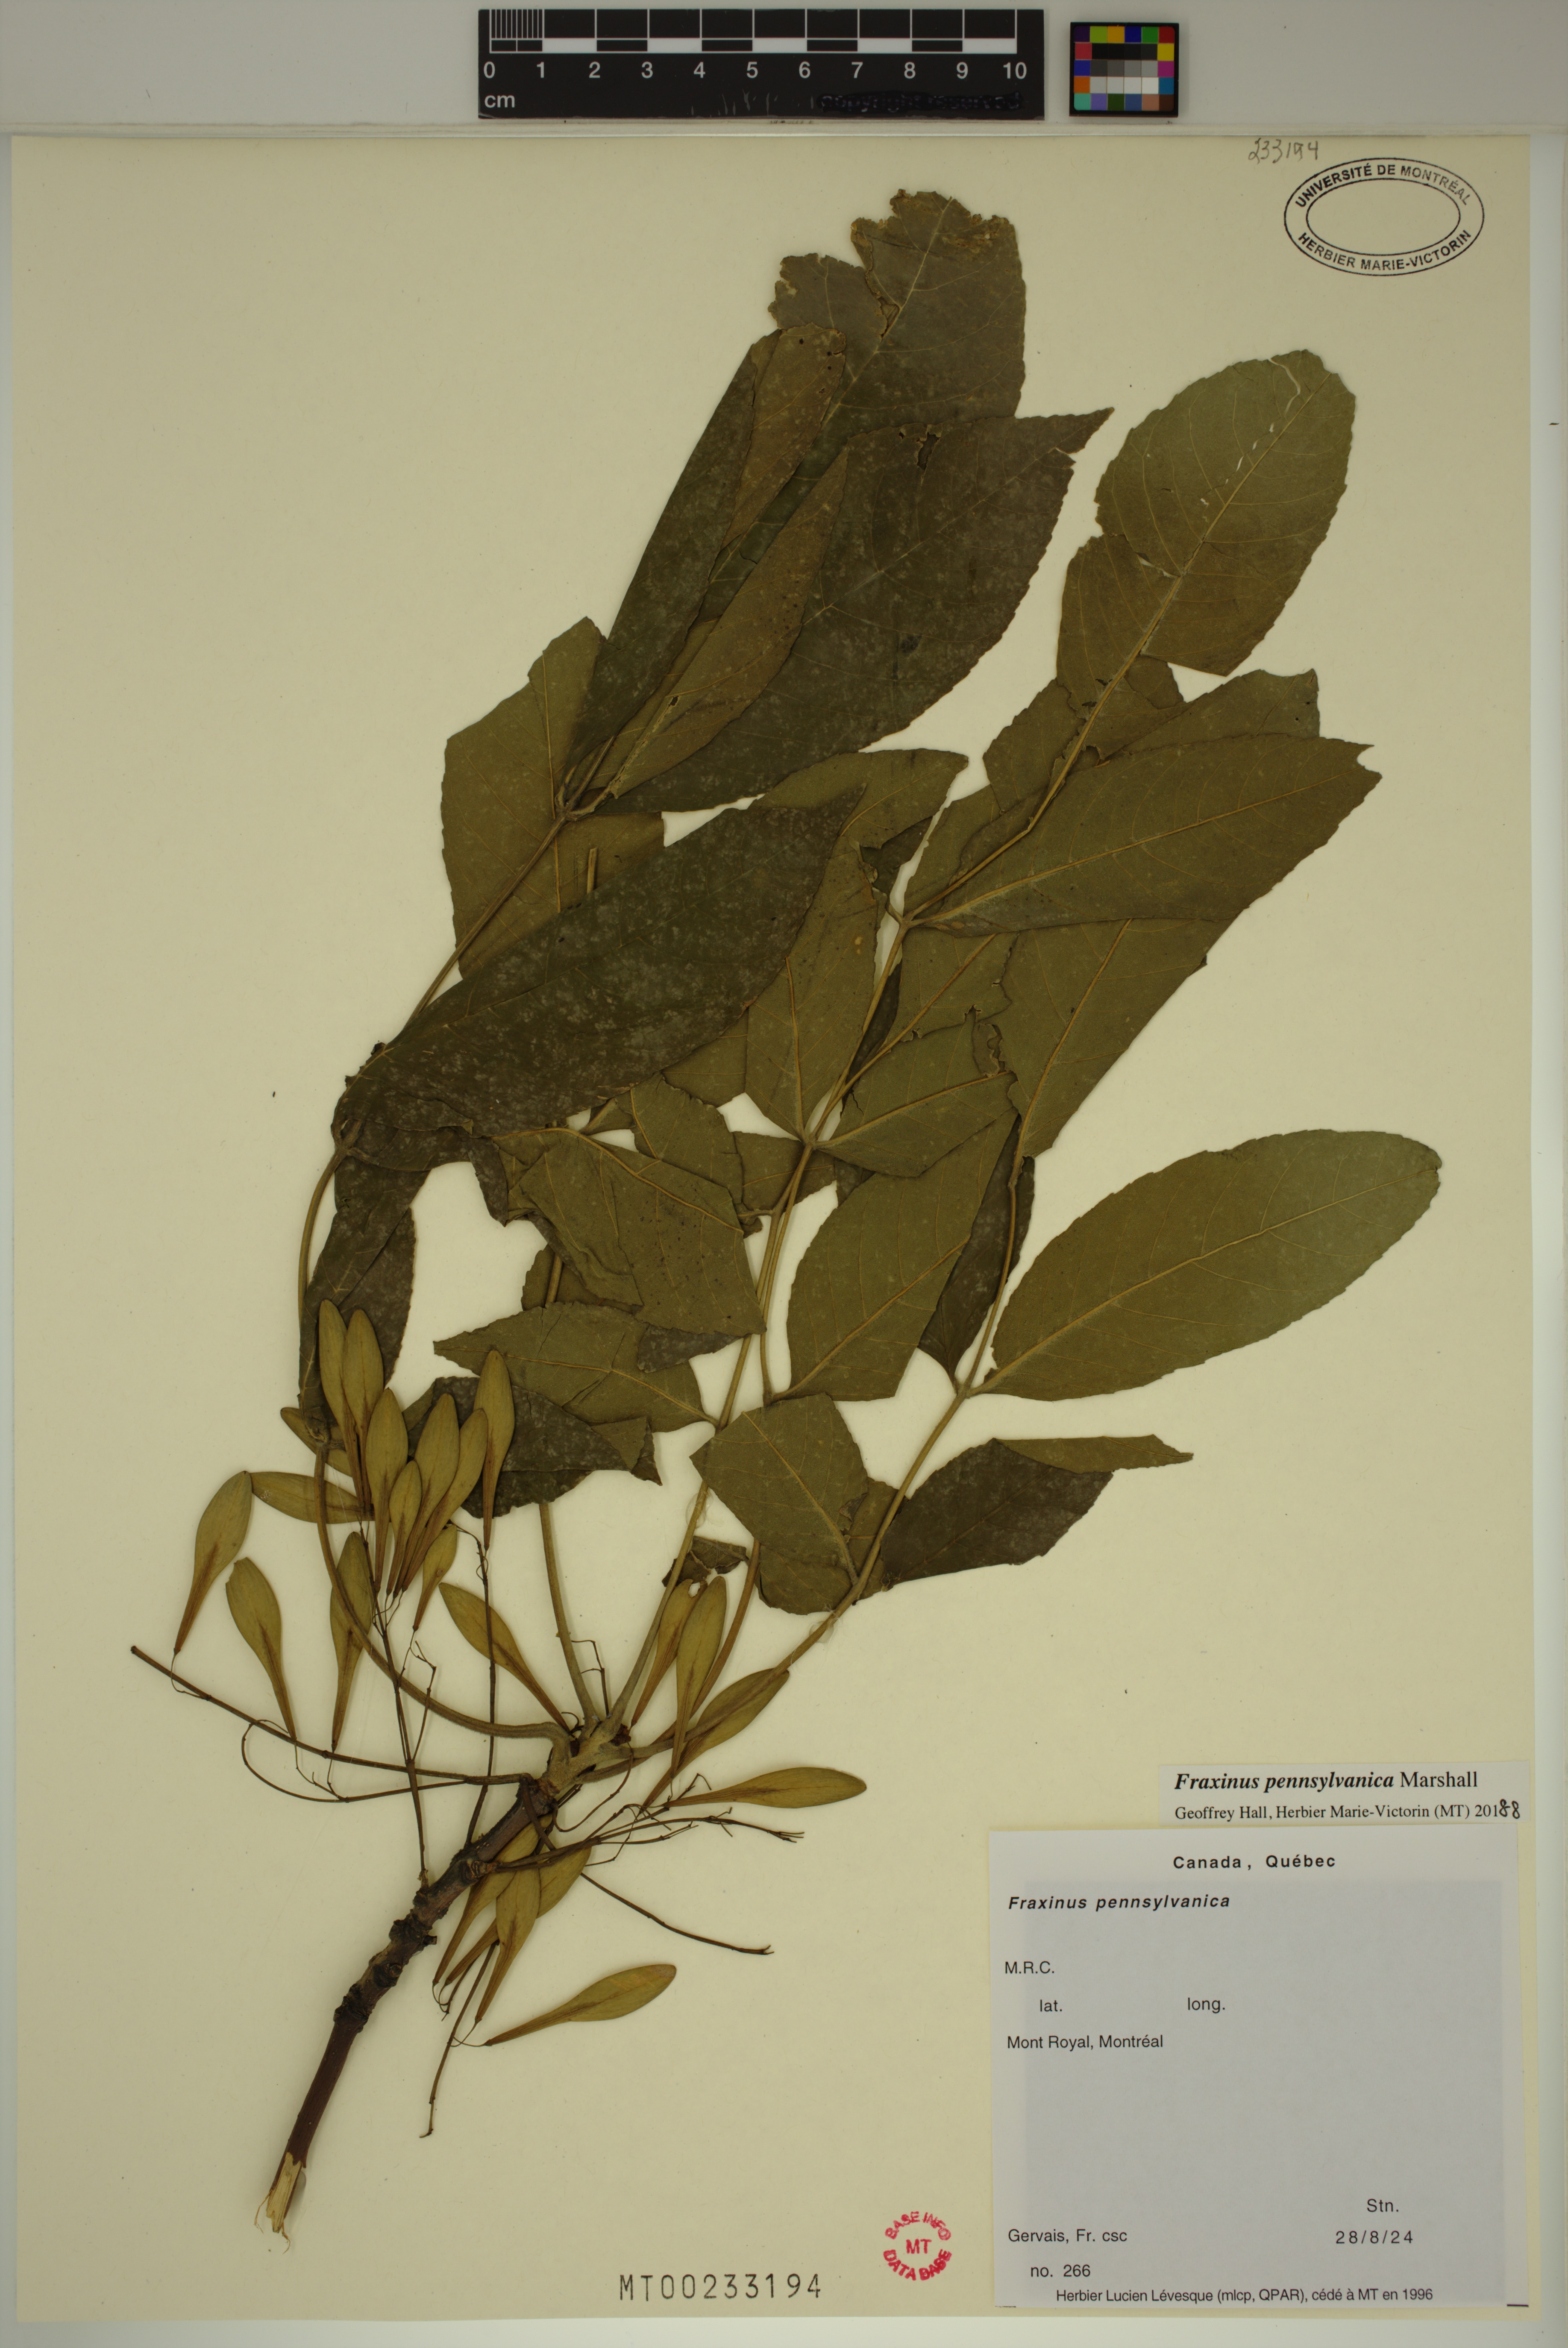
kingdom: Plantae
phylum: Tracheophyta
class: Magnoliopsida
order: Lamiales
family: Oleaceae
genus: Fraxinus
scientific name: Fraxinus pennsylvanica
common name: Green ash
